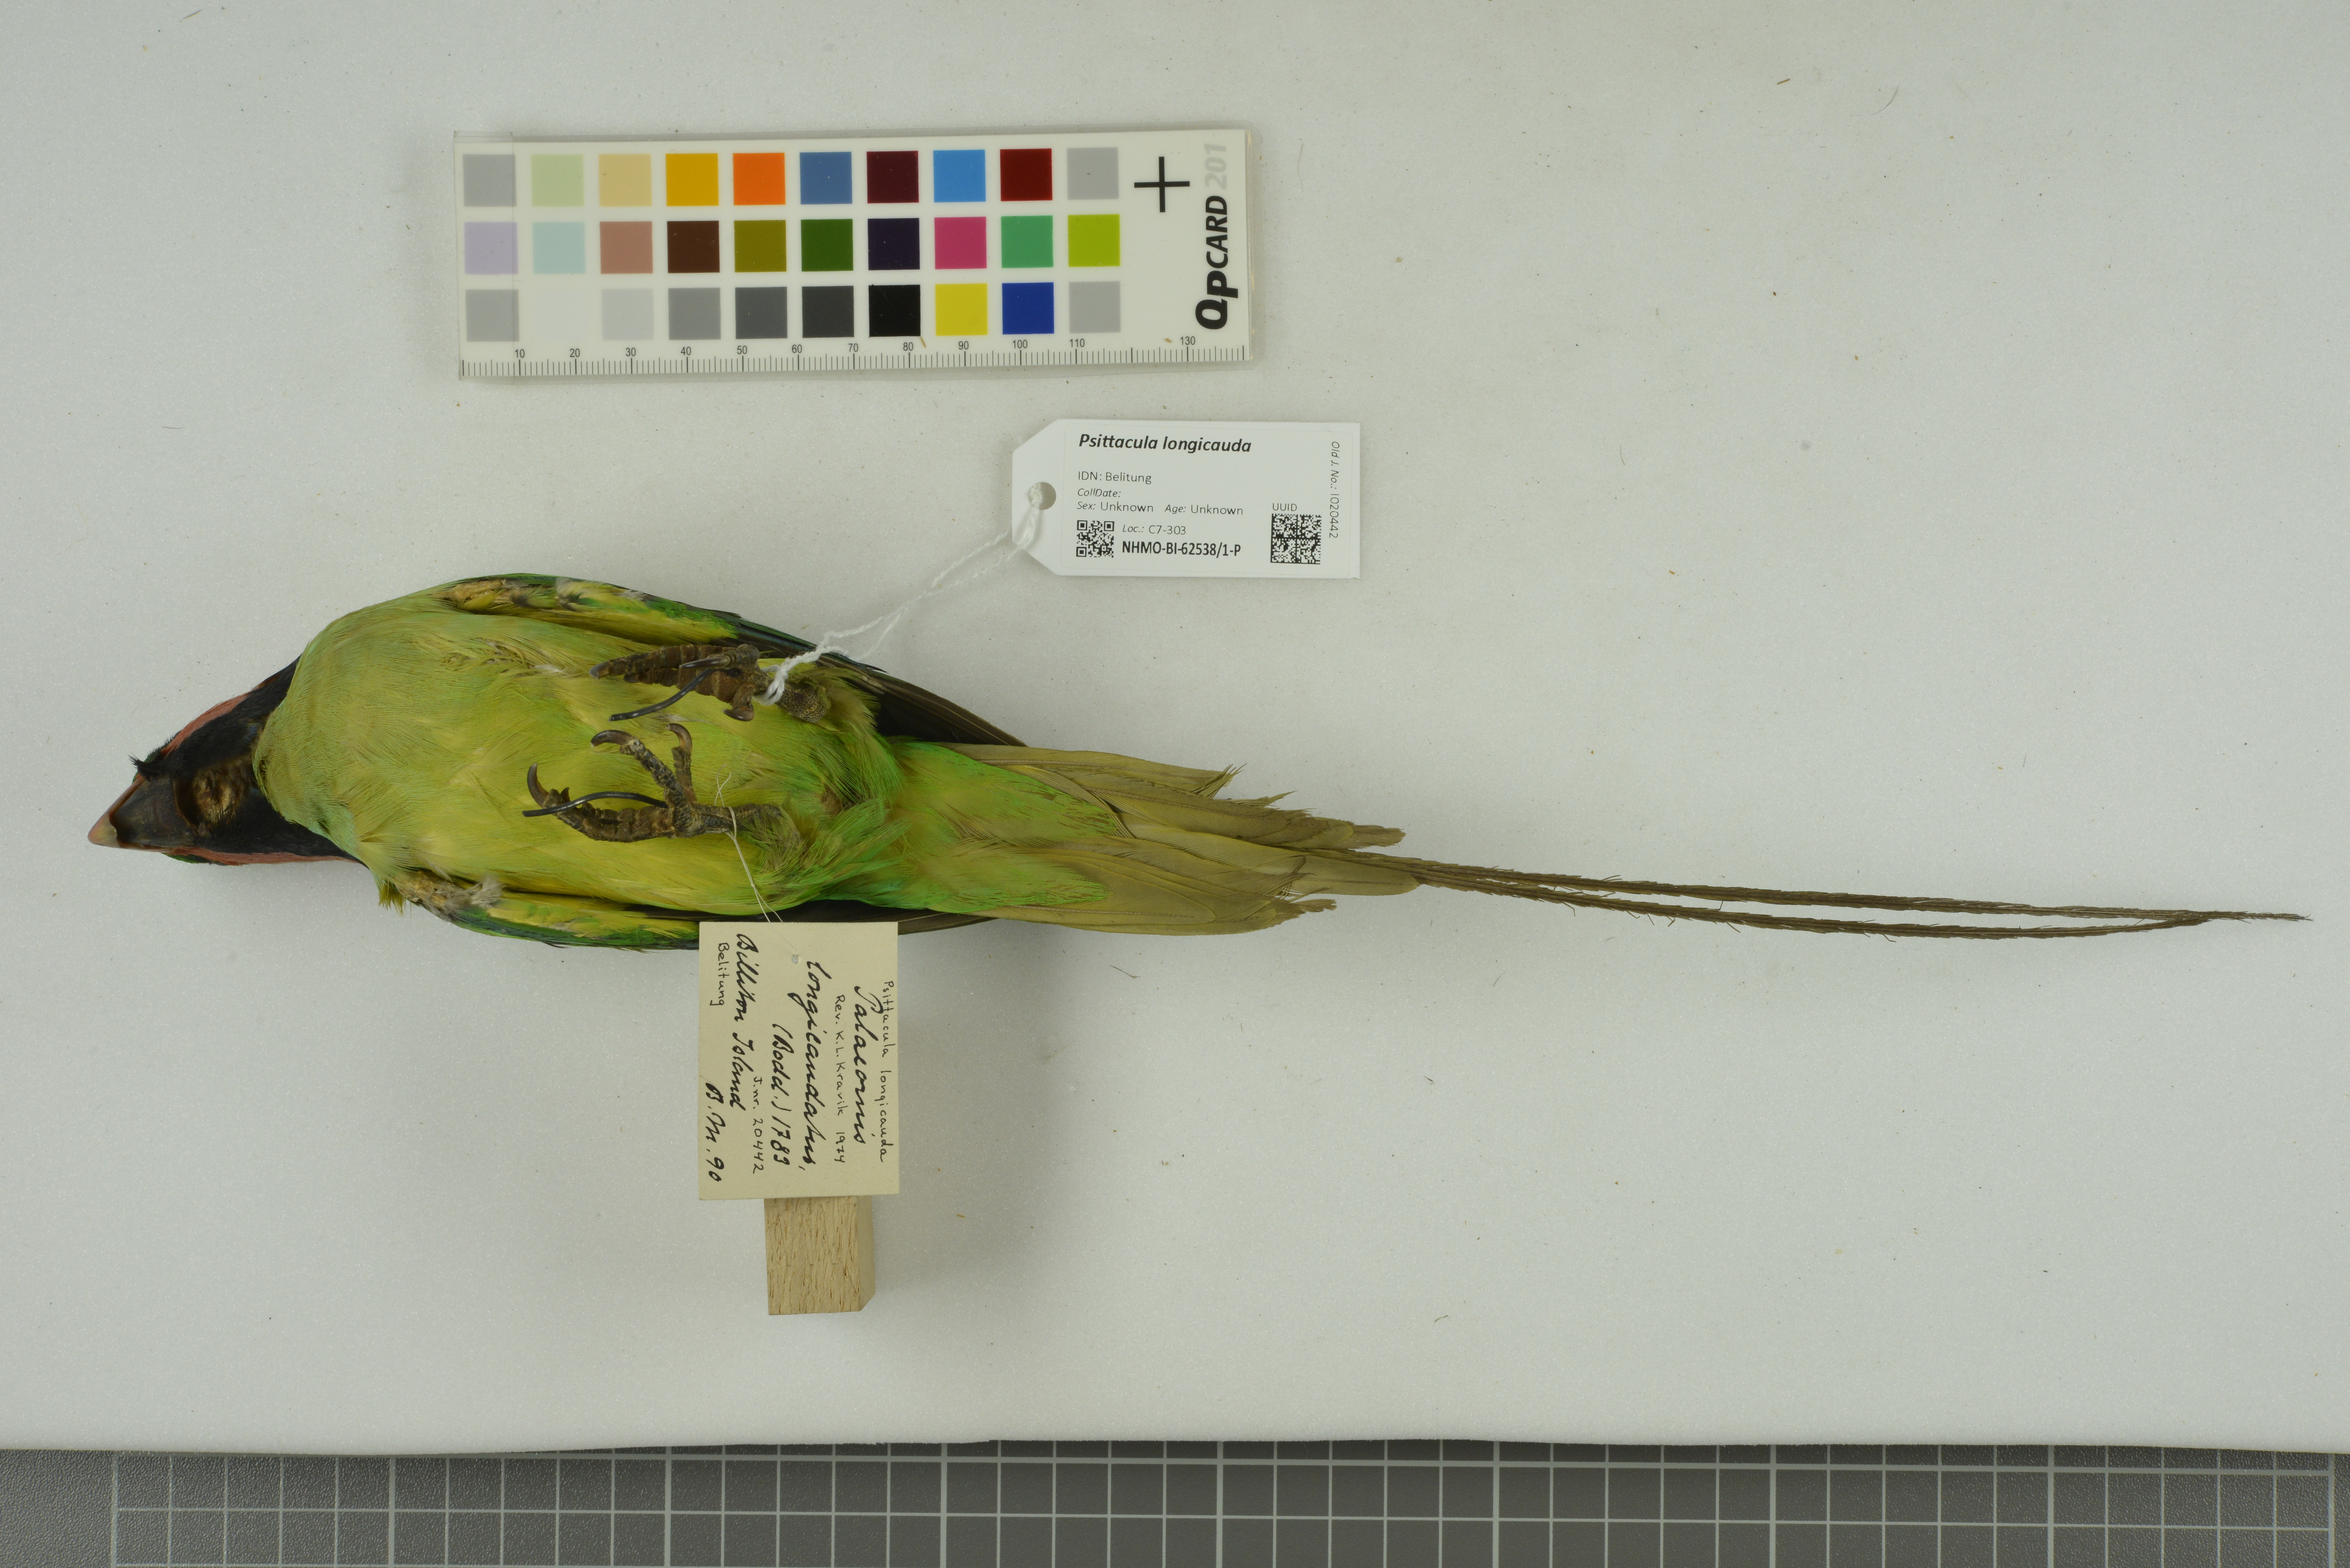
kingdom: Animalia
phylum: Chordata
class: Aves
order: Psittaciformes
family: Psittacidae
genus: Psittacula
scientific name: Psittacula longicauda
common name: Long-tailed parakeet
